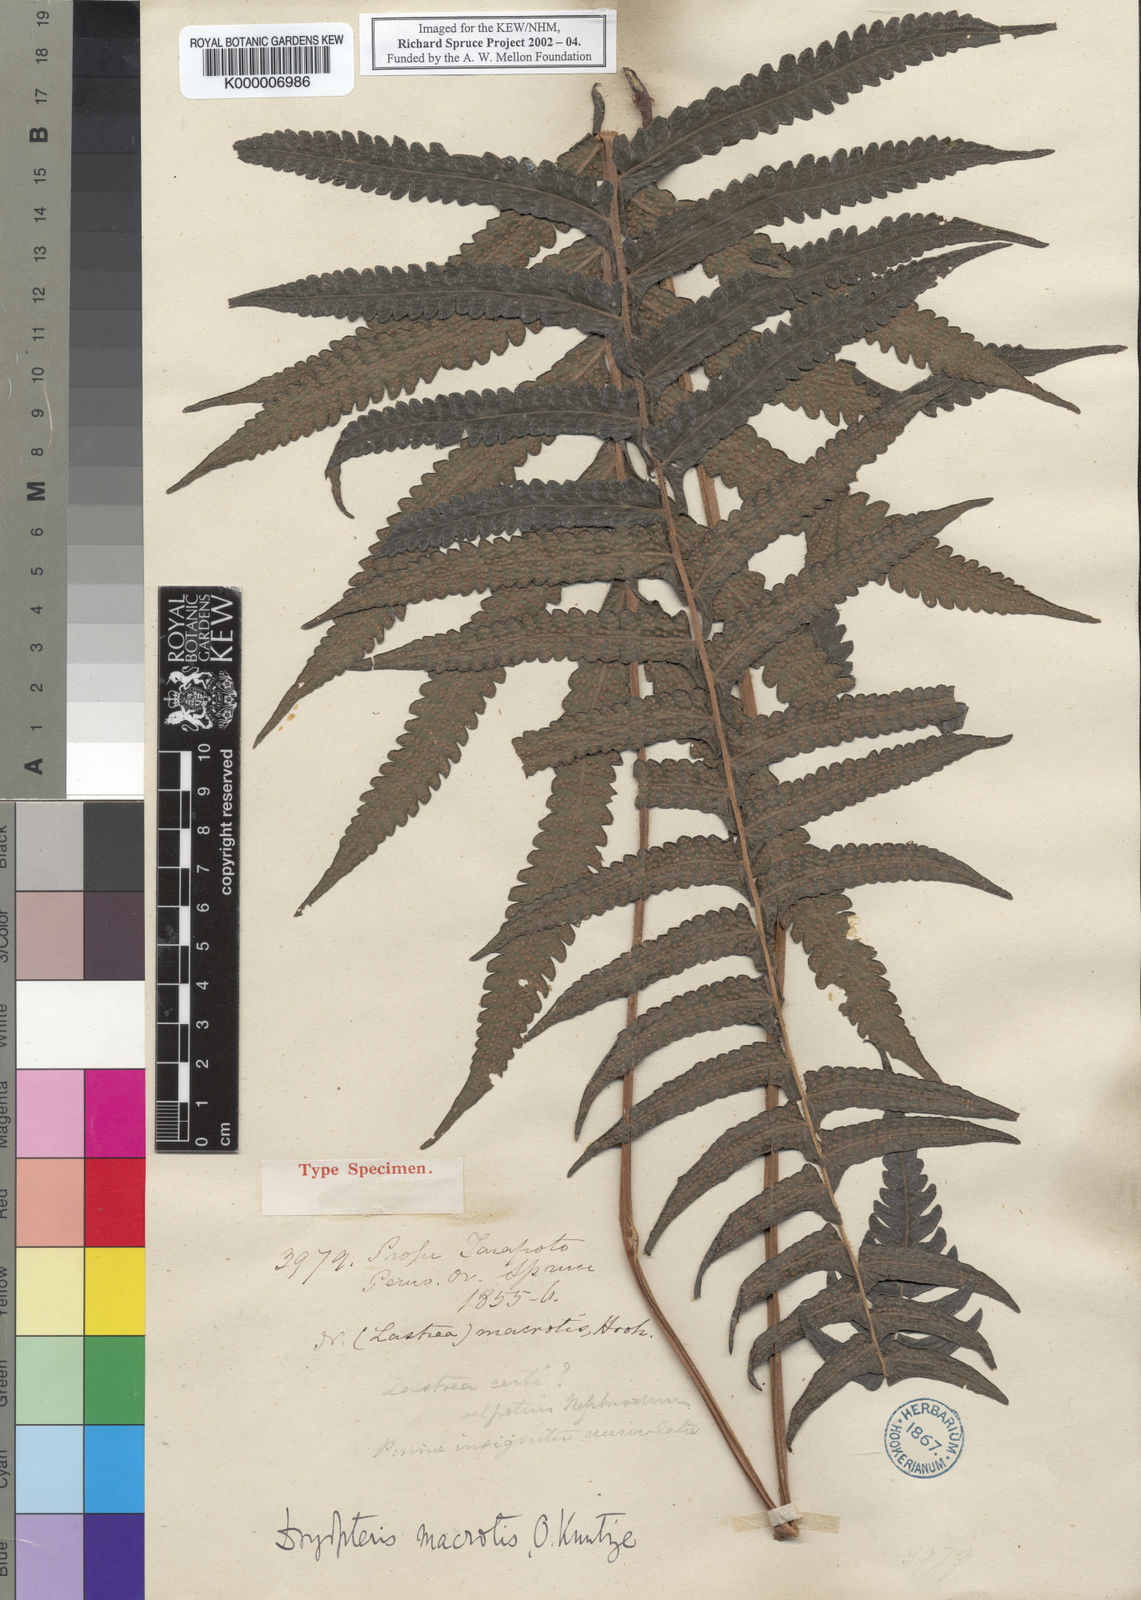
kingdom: Plantae
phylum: Tracheophyta
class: Polypodiopsida
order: Polypodiales
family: Thelypteridaceae
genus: Goniopteris
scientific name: Goniopteris macrotis
